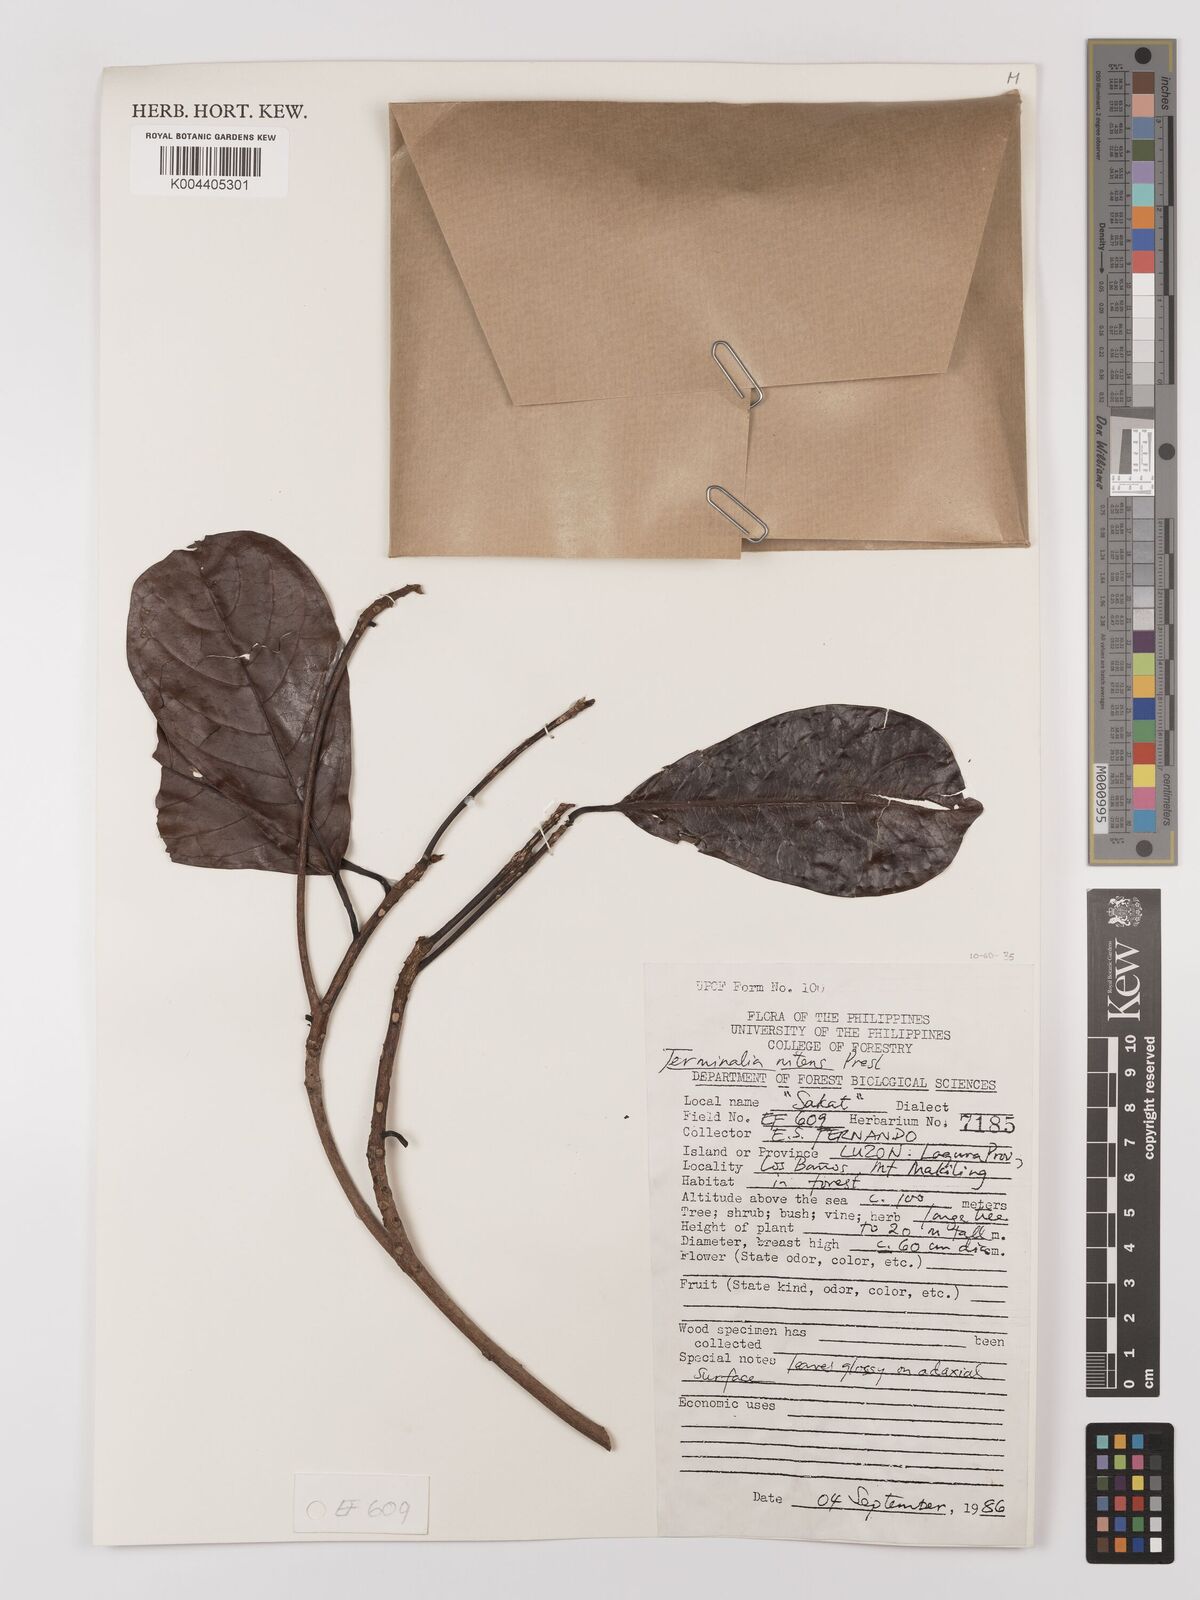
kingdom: Plantae
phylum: Tracheophyta
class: Magnoliopsida
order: Myrtales
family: Combretaceae
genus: Terminalia
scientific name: Terminalia nitens
